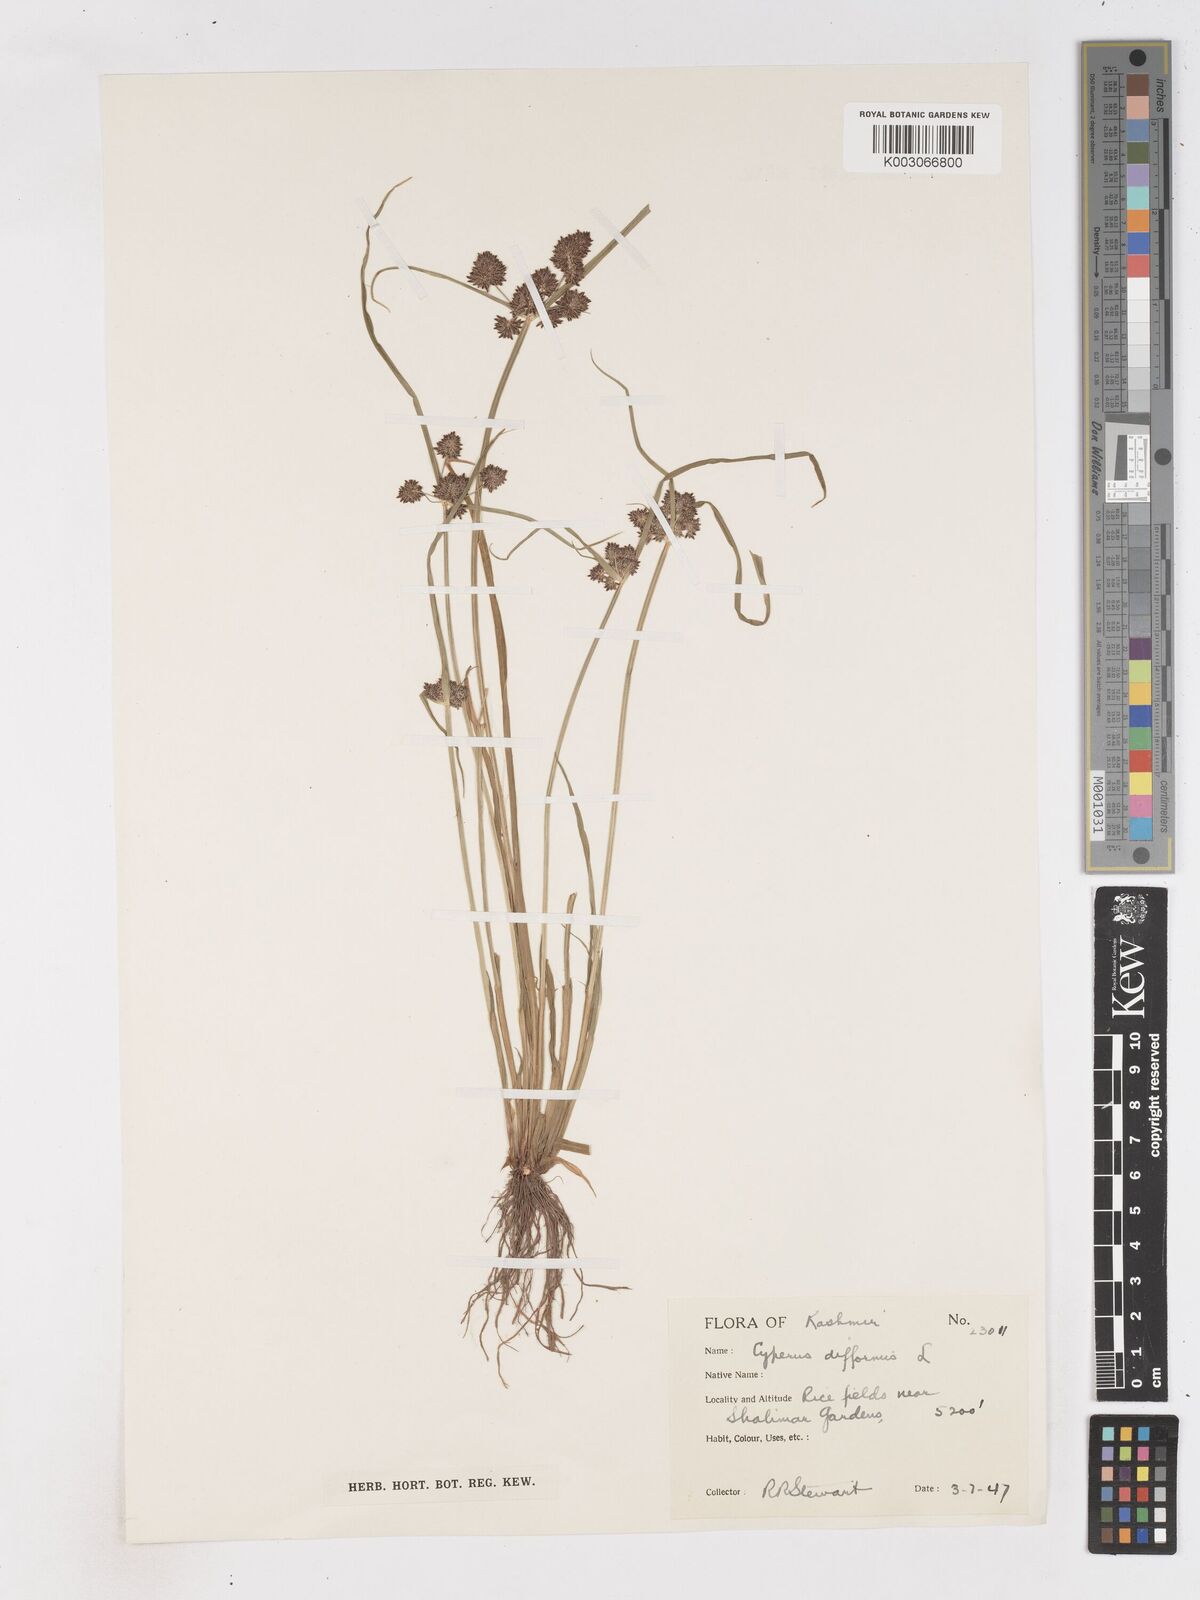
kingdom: Plantae
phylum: Tracheophyta
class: Liliopsida
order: Poales
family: Cyperaceae
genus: Cyperus
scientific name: Cyperus difformis
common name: Variable flatsedge
